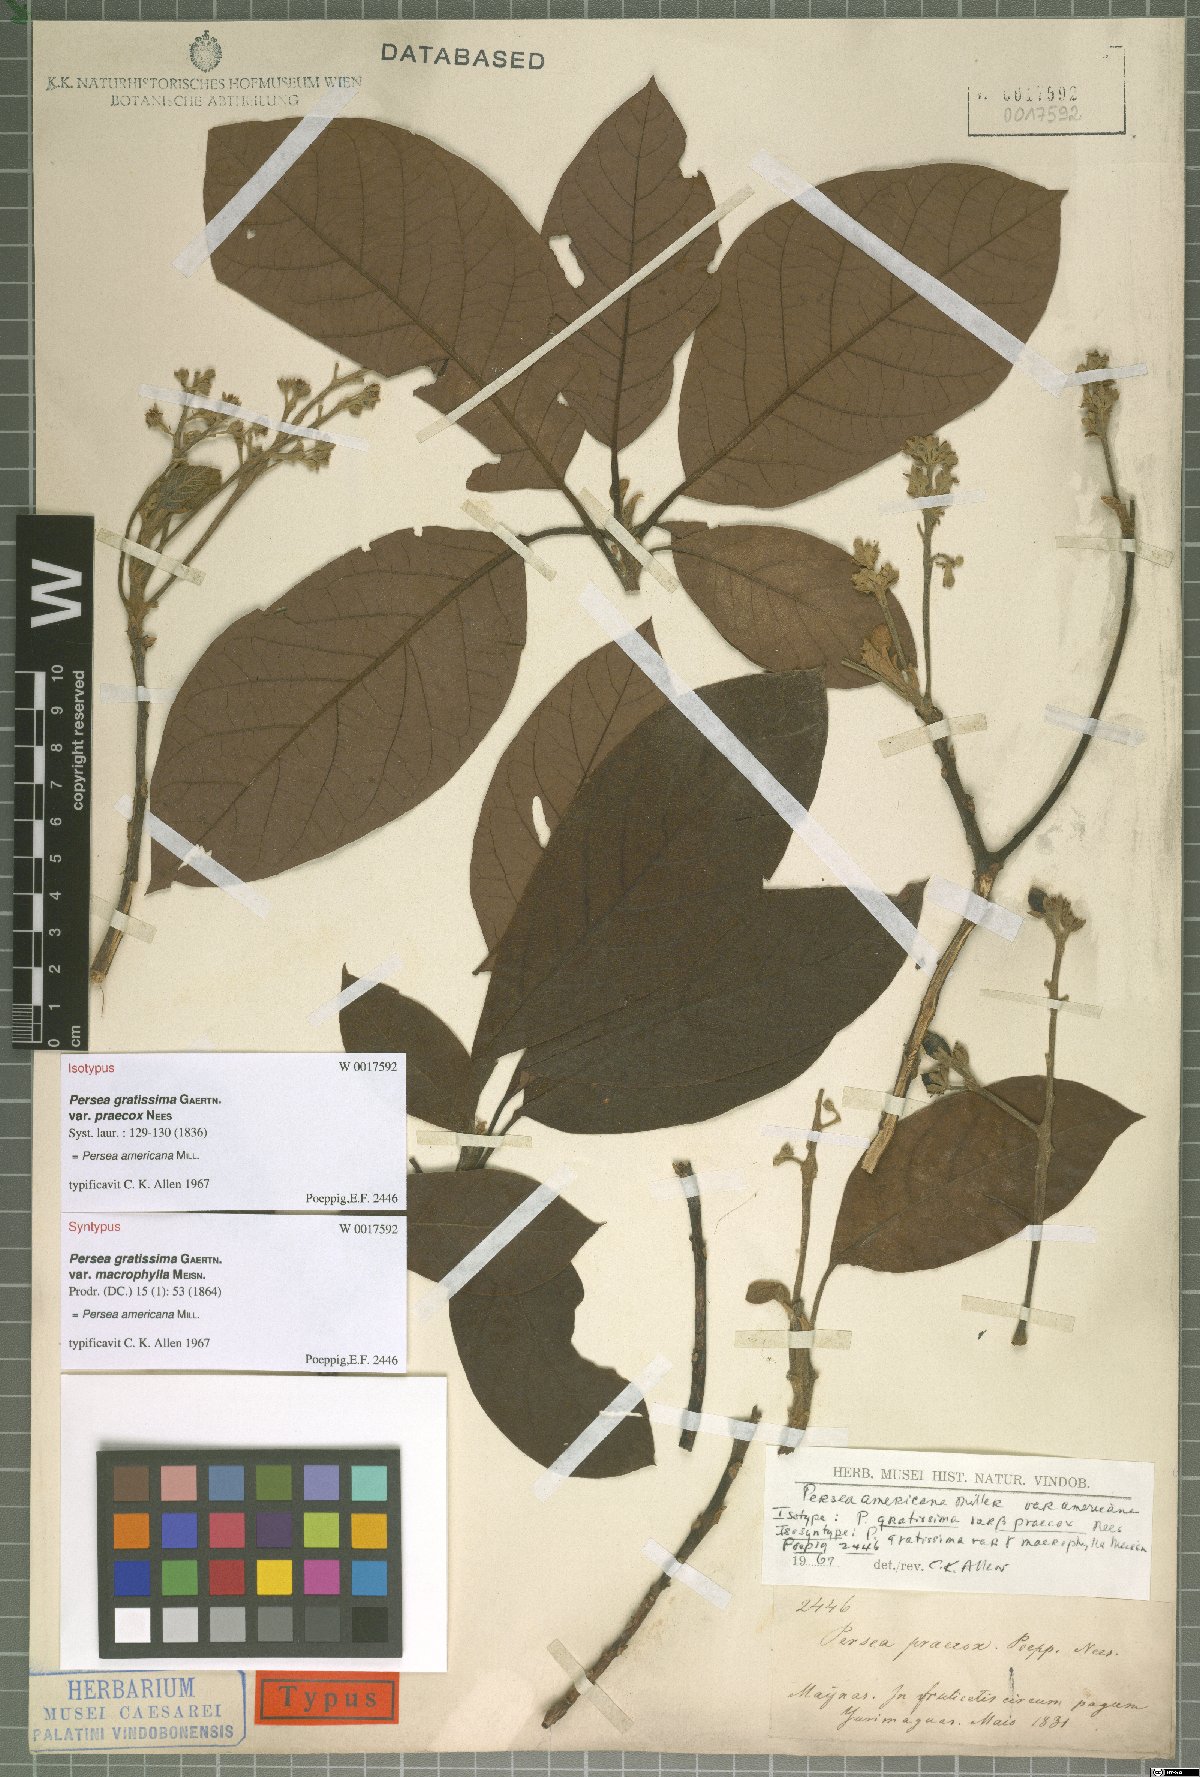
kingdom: Plantae
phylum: Tracheophyta
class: Magnoliopsida
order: Laurales
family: Lauraceae
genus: Persea
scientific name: Persea americana
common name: Avocado
